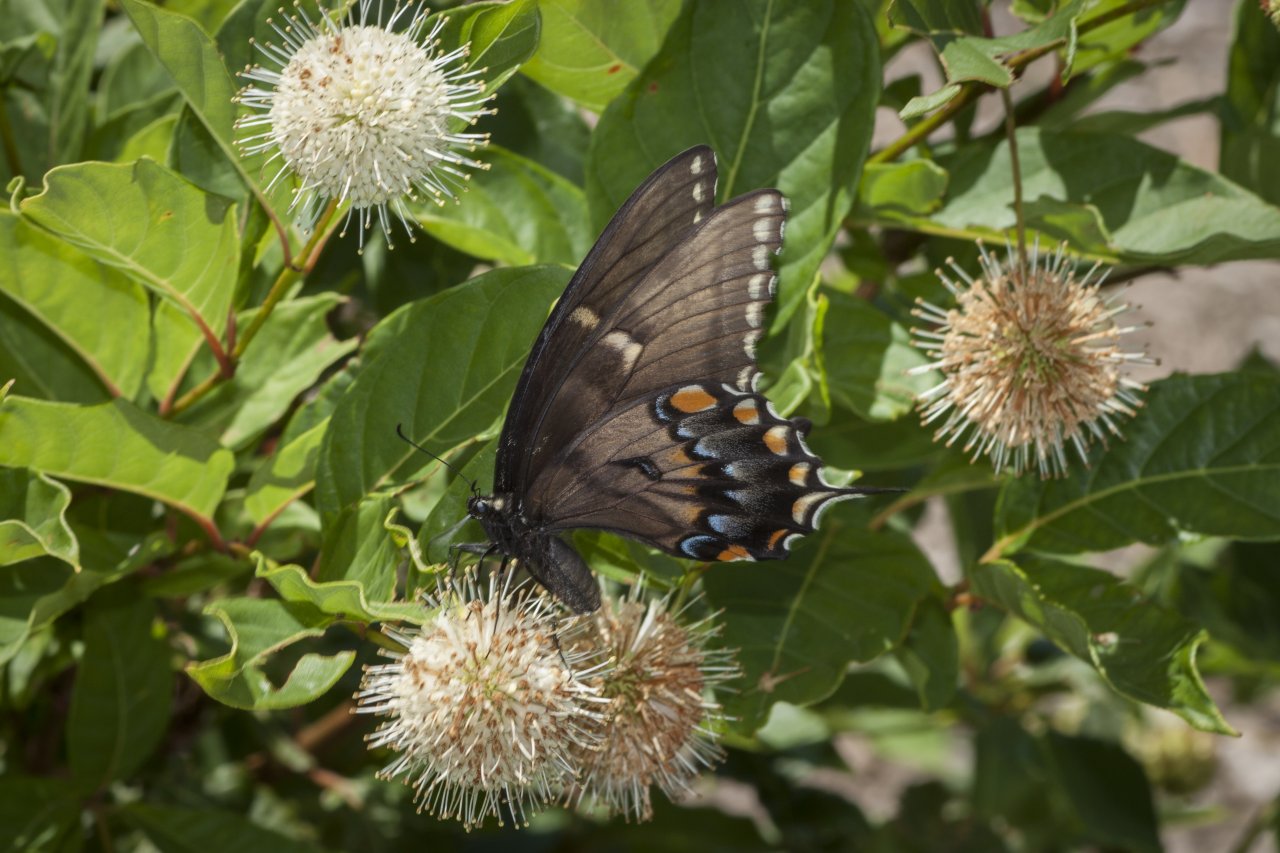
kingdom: Animalia
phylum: Arthropoda
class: Insecta
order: Lepidoptera
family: Papilionidae
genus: Pterourus
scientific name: Pterourus glaucus
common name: Eastern Tiger Swallowtail
